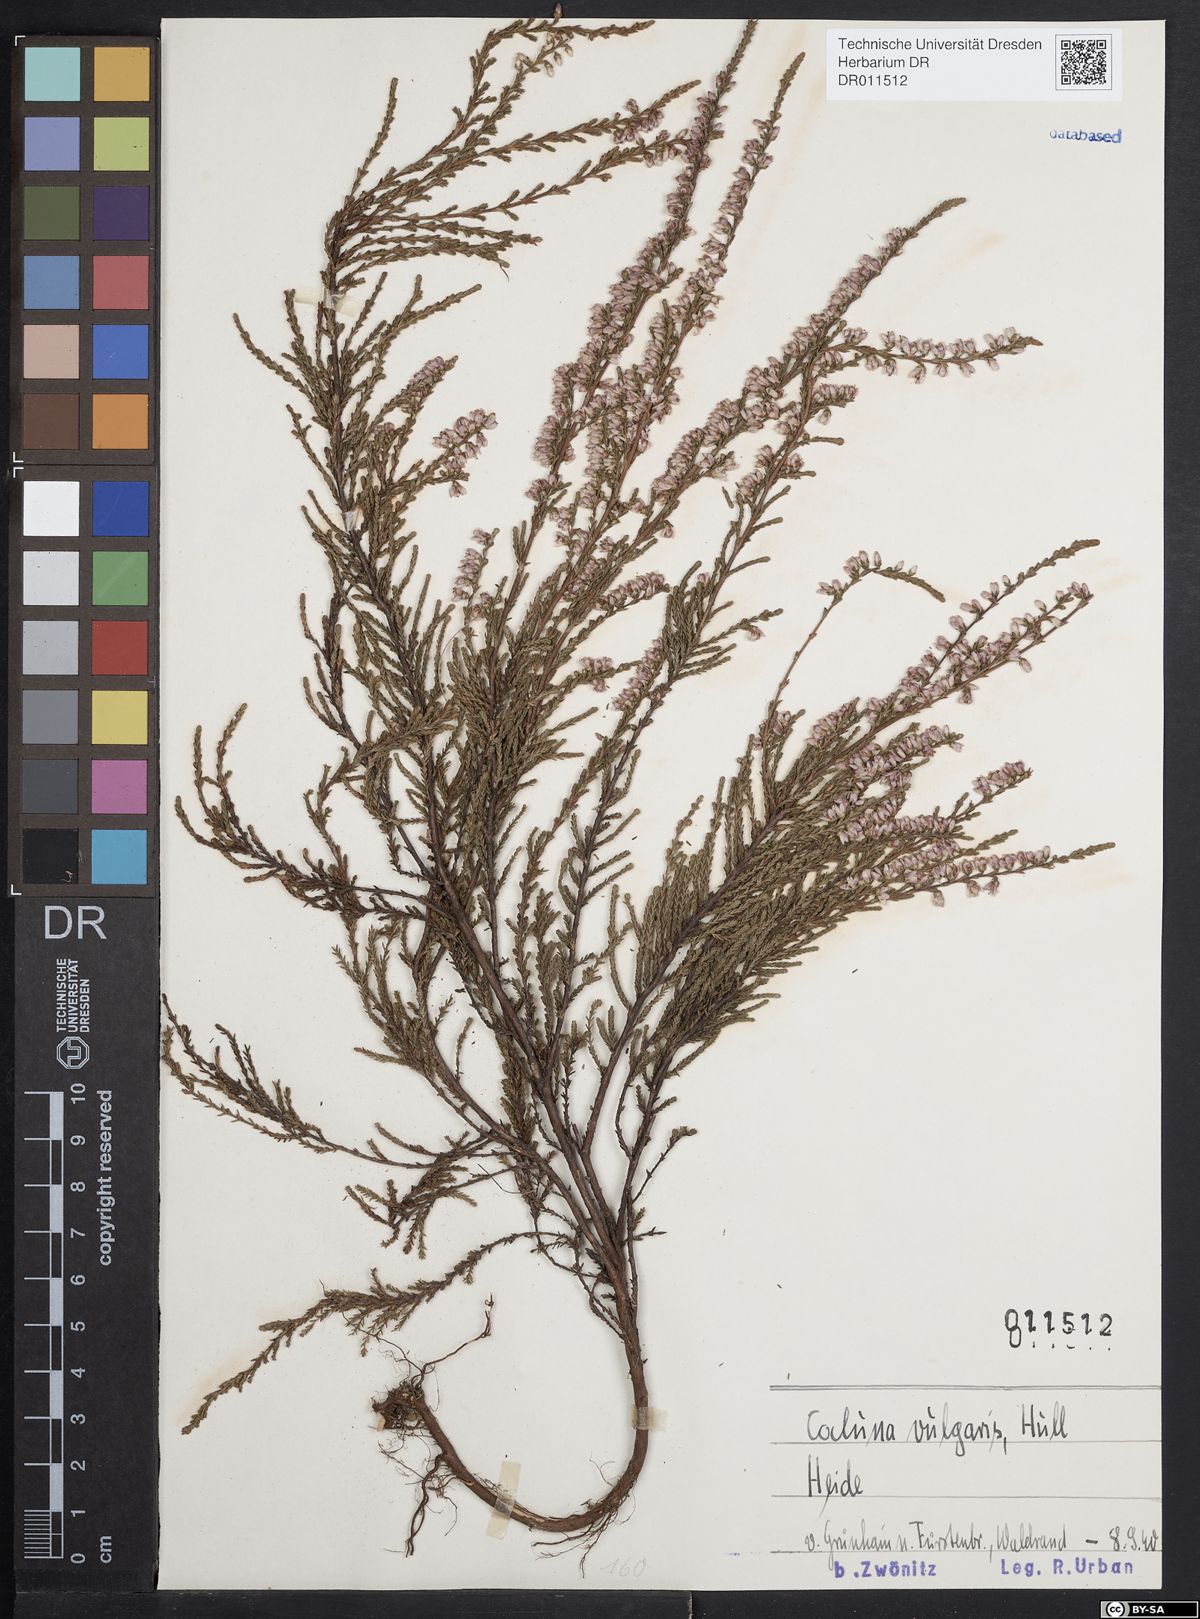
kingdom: Plantae
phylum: Tracheophyta
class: Magnoliopsida
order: Ericales
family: Ericaceae
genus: Calluna
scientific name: Calluna vulgaris
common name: Heather
